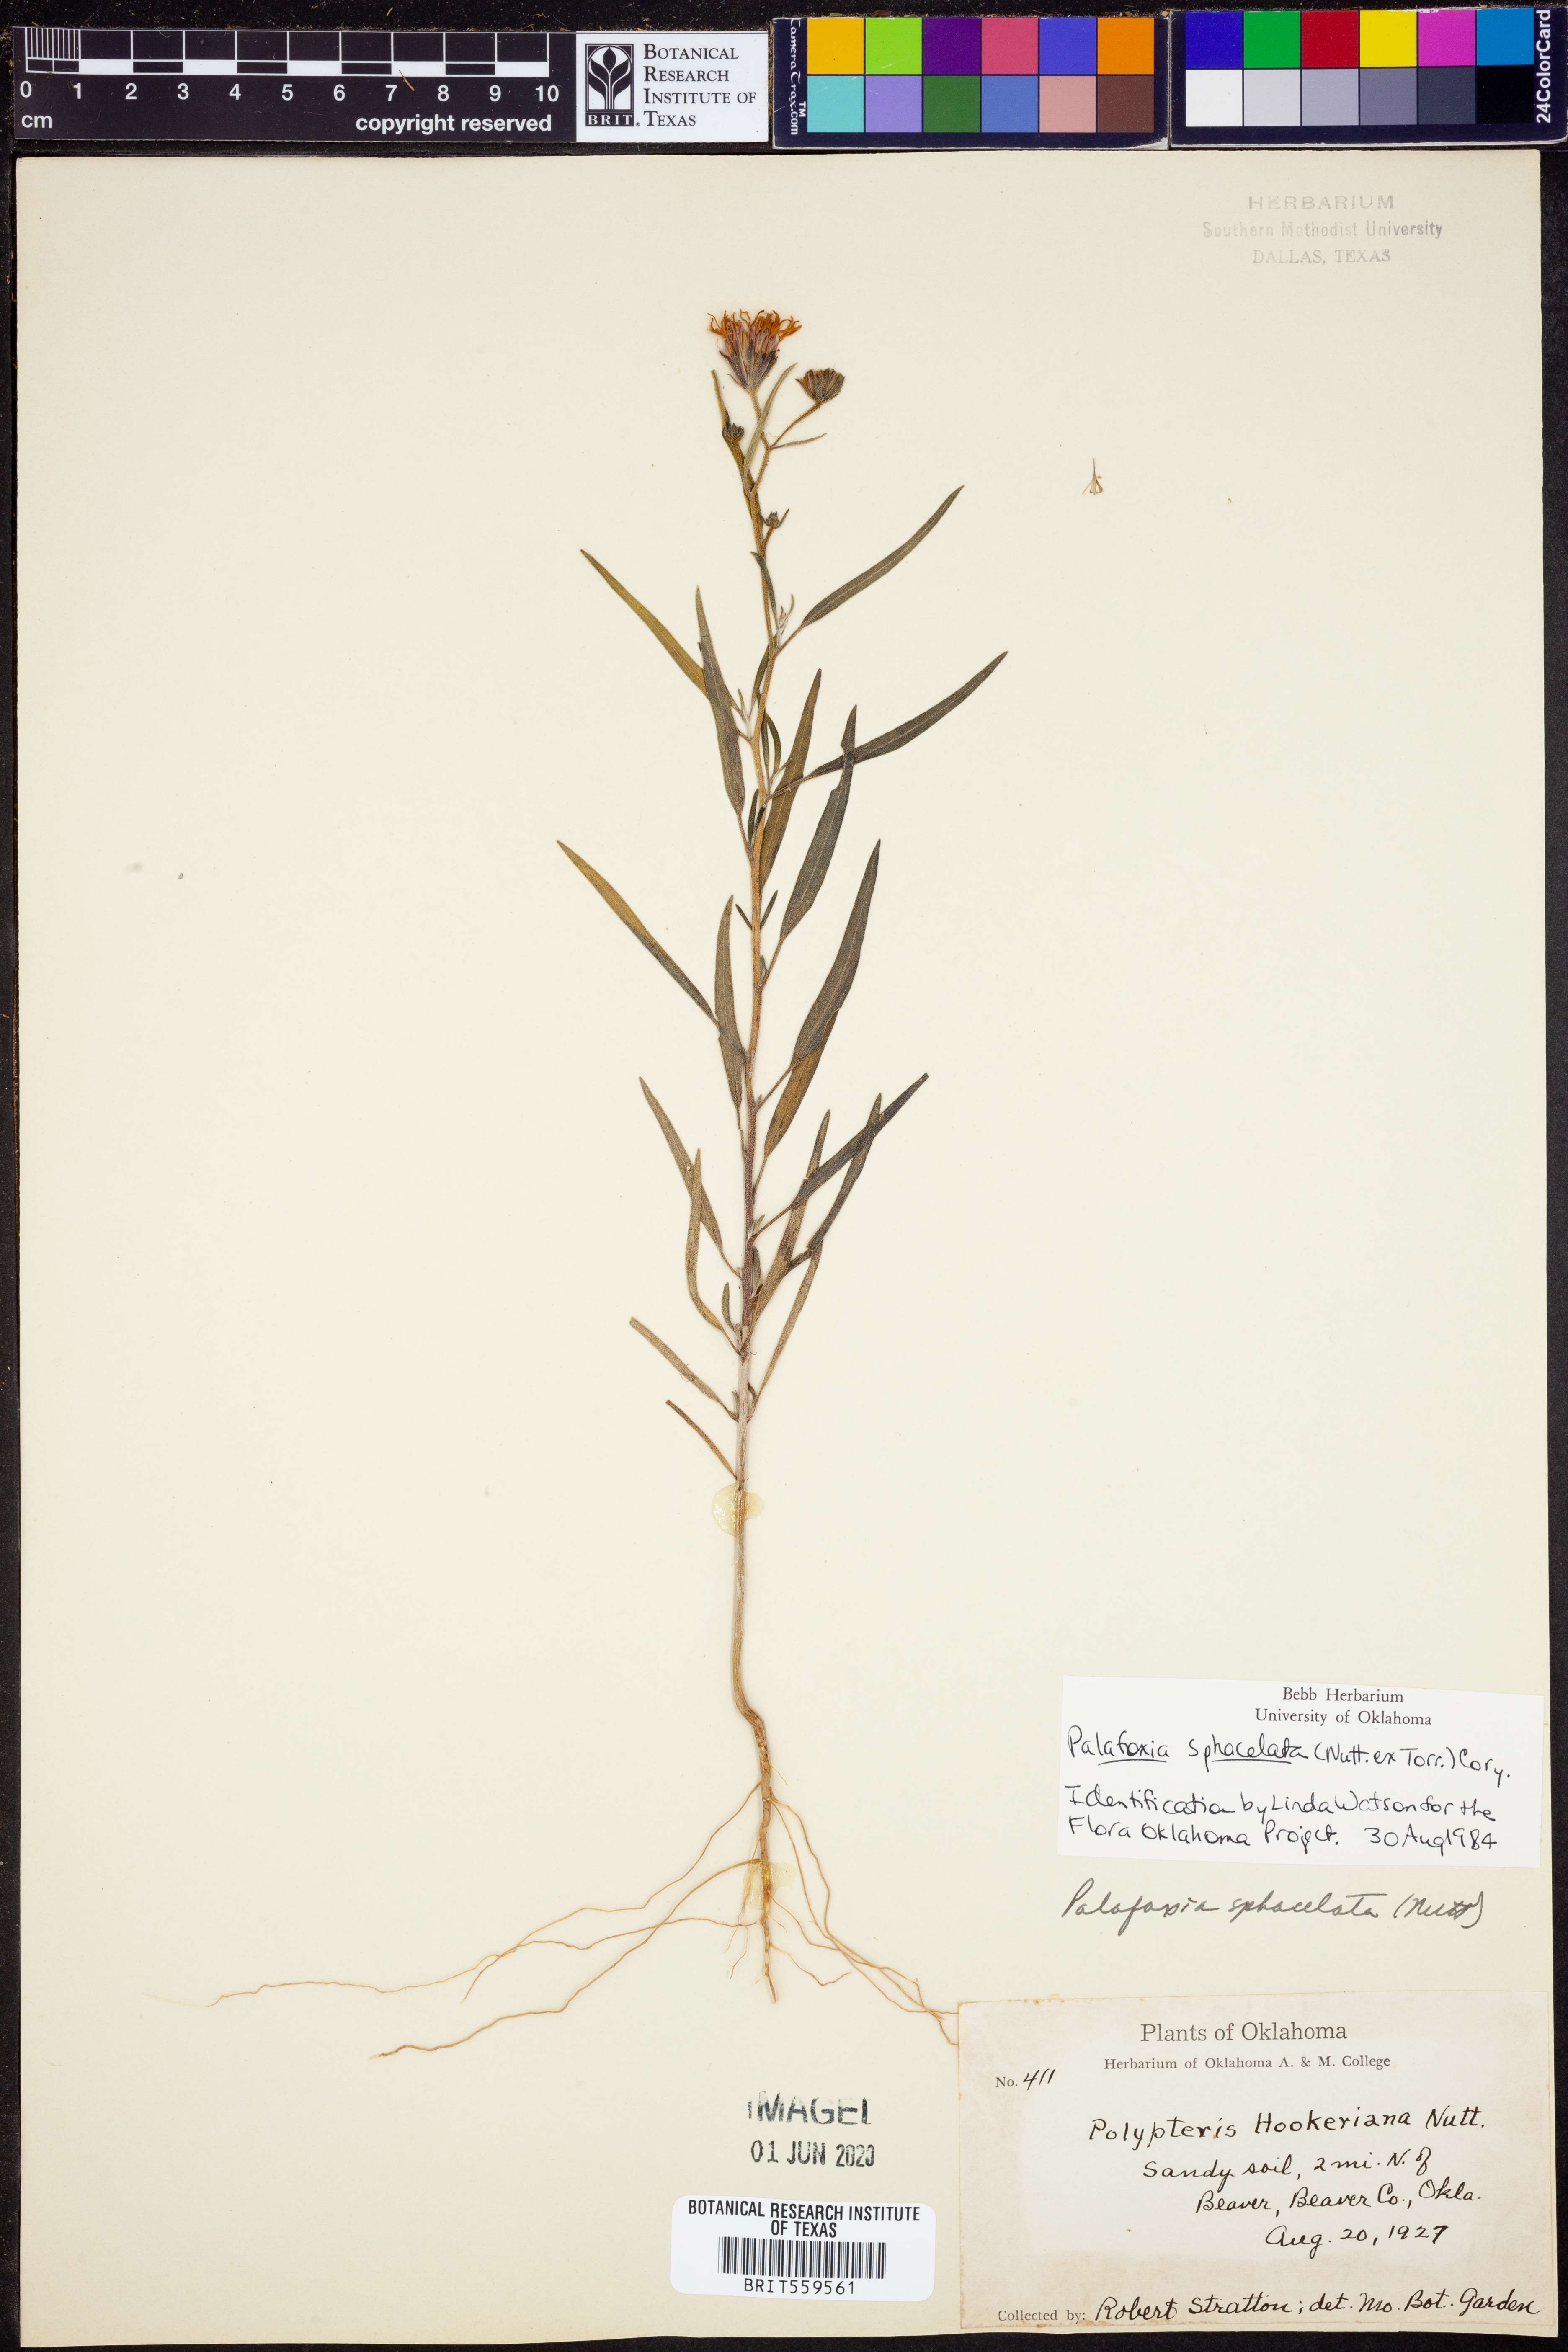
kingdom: Plantae
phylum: Tracheophyta
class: Magnoliopsida
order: Asterales
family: Asteraceae
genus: Palafoxia
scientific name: Palafoxia sphacelata
